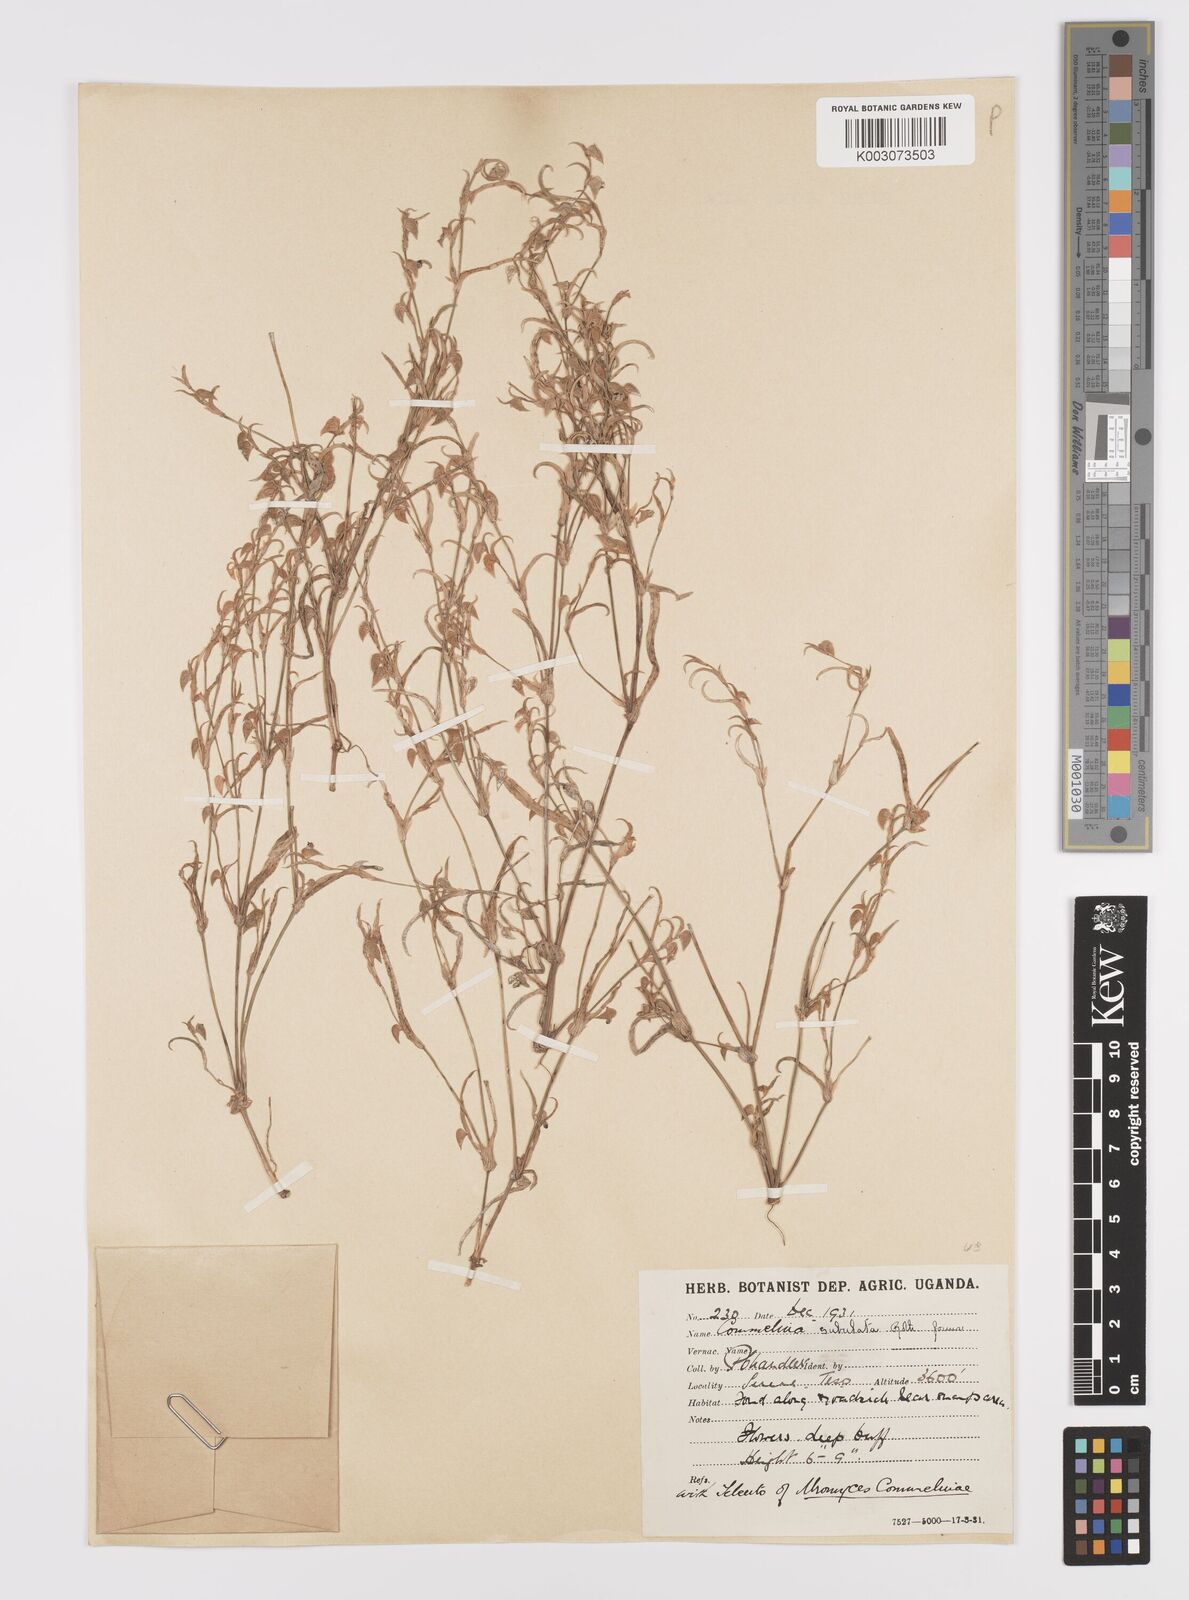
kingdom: Plantae
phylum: Tracheophyta
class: Liliopsida
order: Commelinales
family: Commelinaceae
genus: Commelina
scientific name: Commelina subulata
